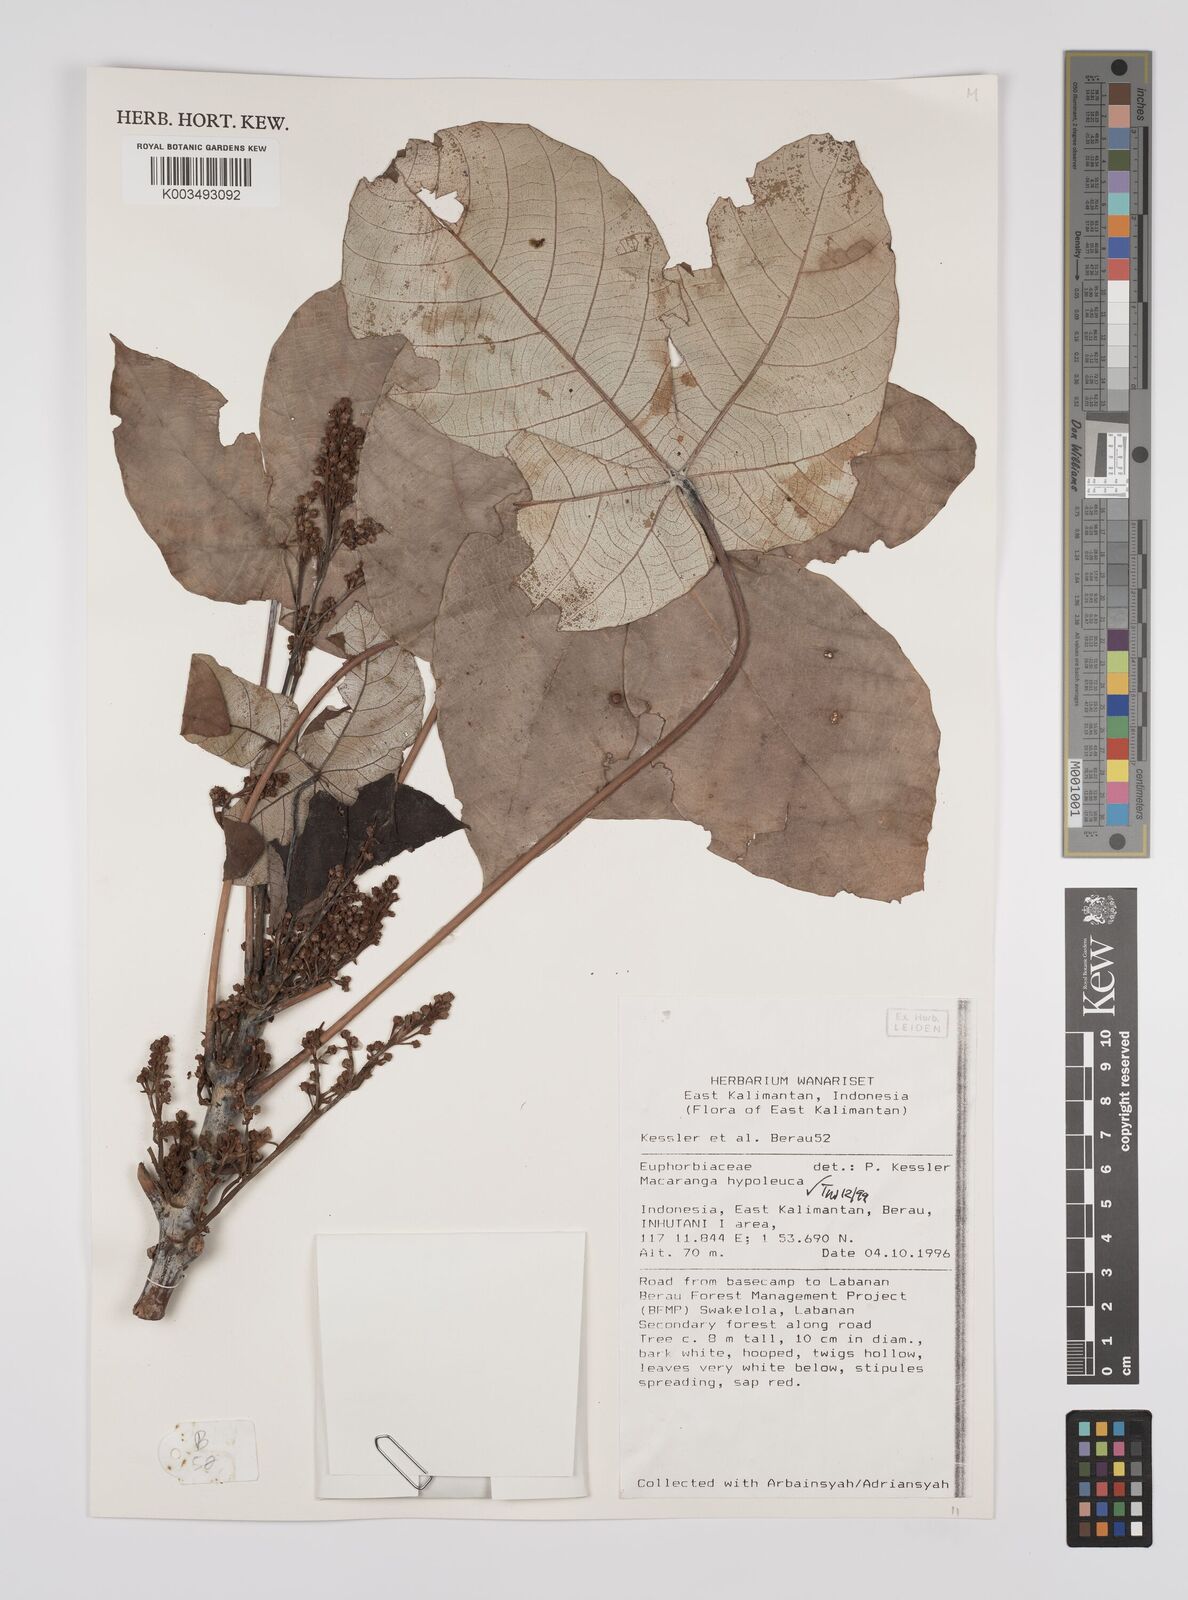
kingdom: Plantae
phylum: Tracheophyta
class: Magnoliopsida
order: Malpighiales
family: Euphorbiaceae
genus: Macaranga
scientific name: Macaranga hypoleuca
